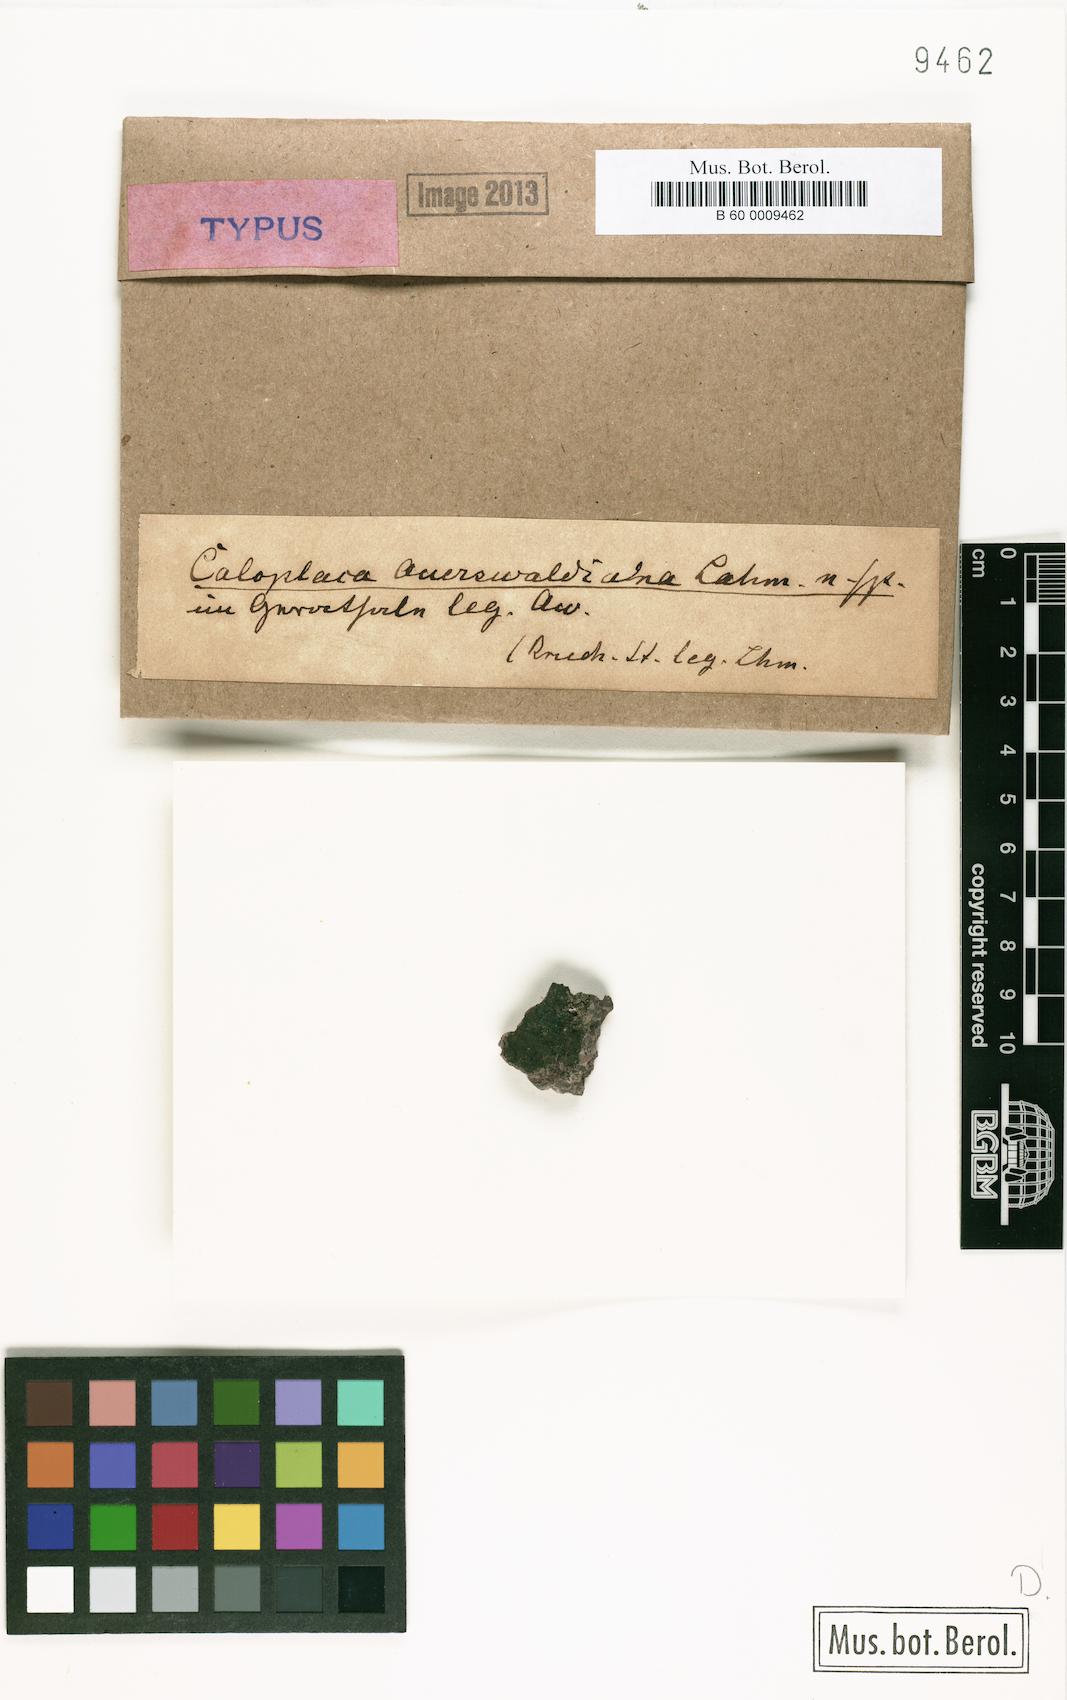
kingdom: Fungi
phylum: Ascomycota
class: Lecanoromycetes
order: Teloschistales
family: Teloschistaceae
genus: Caloplaca
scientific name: Caloplaca
